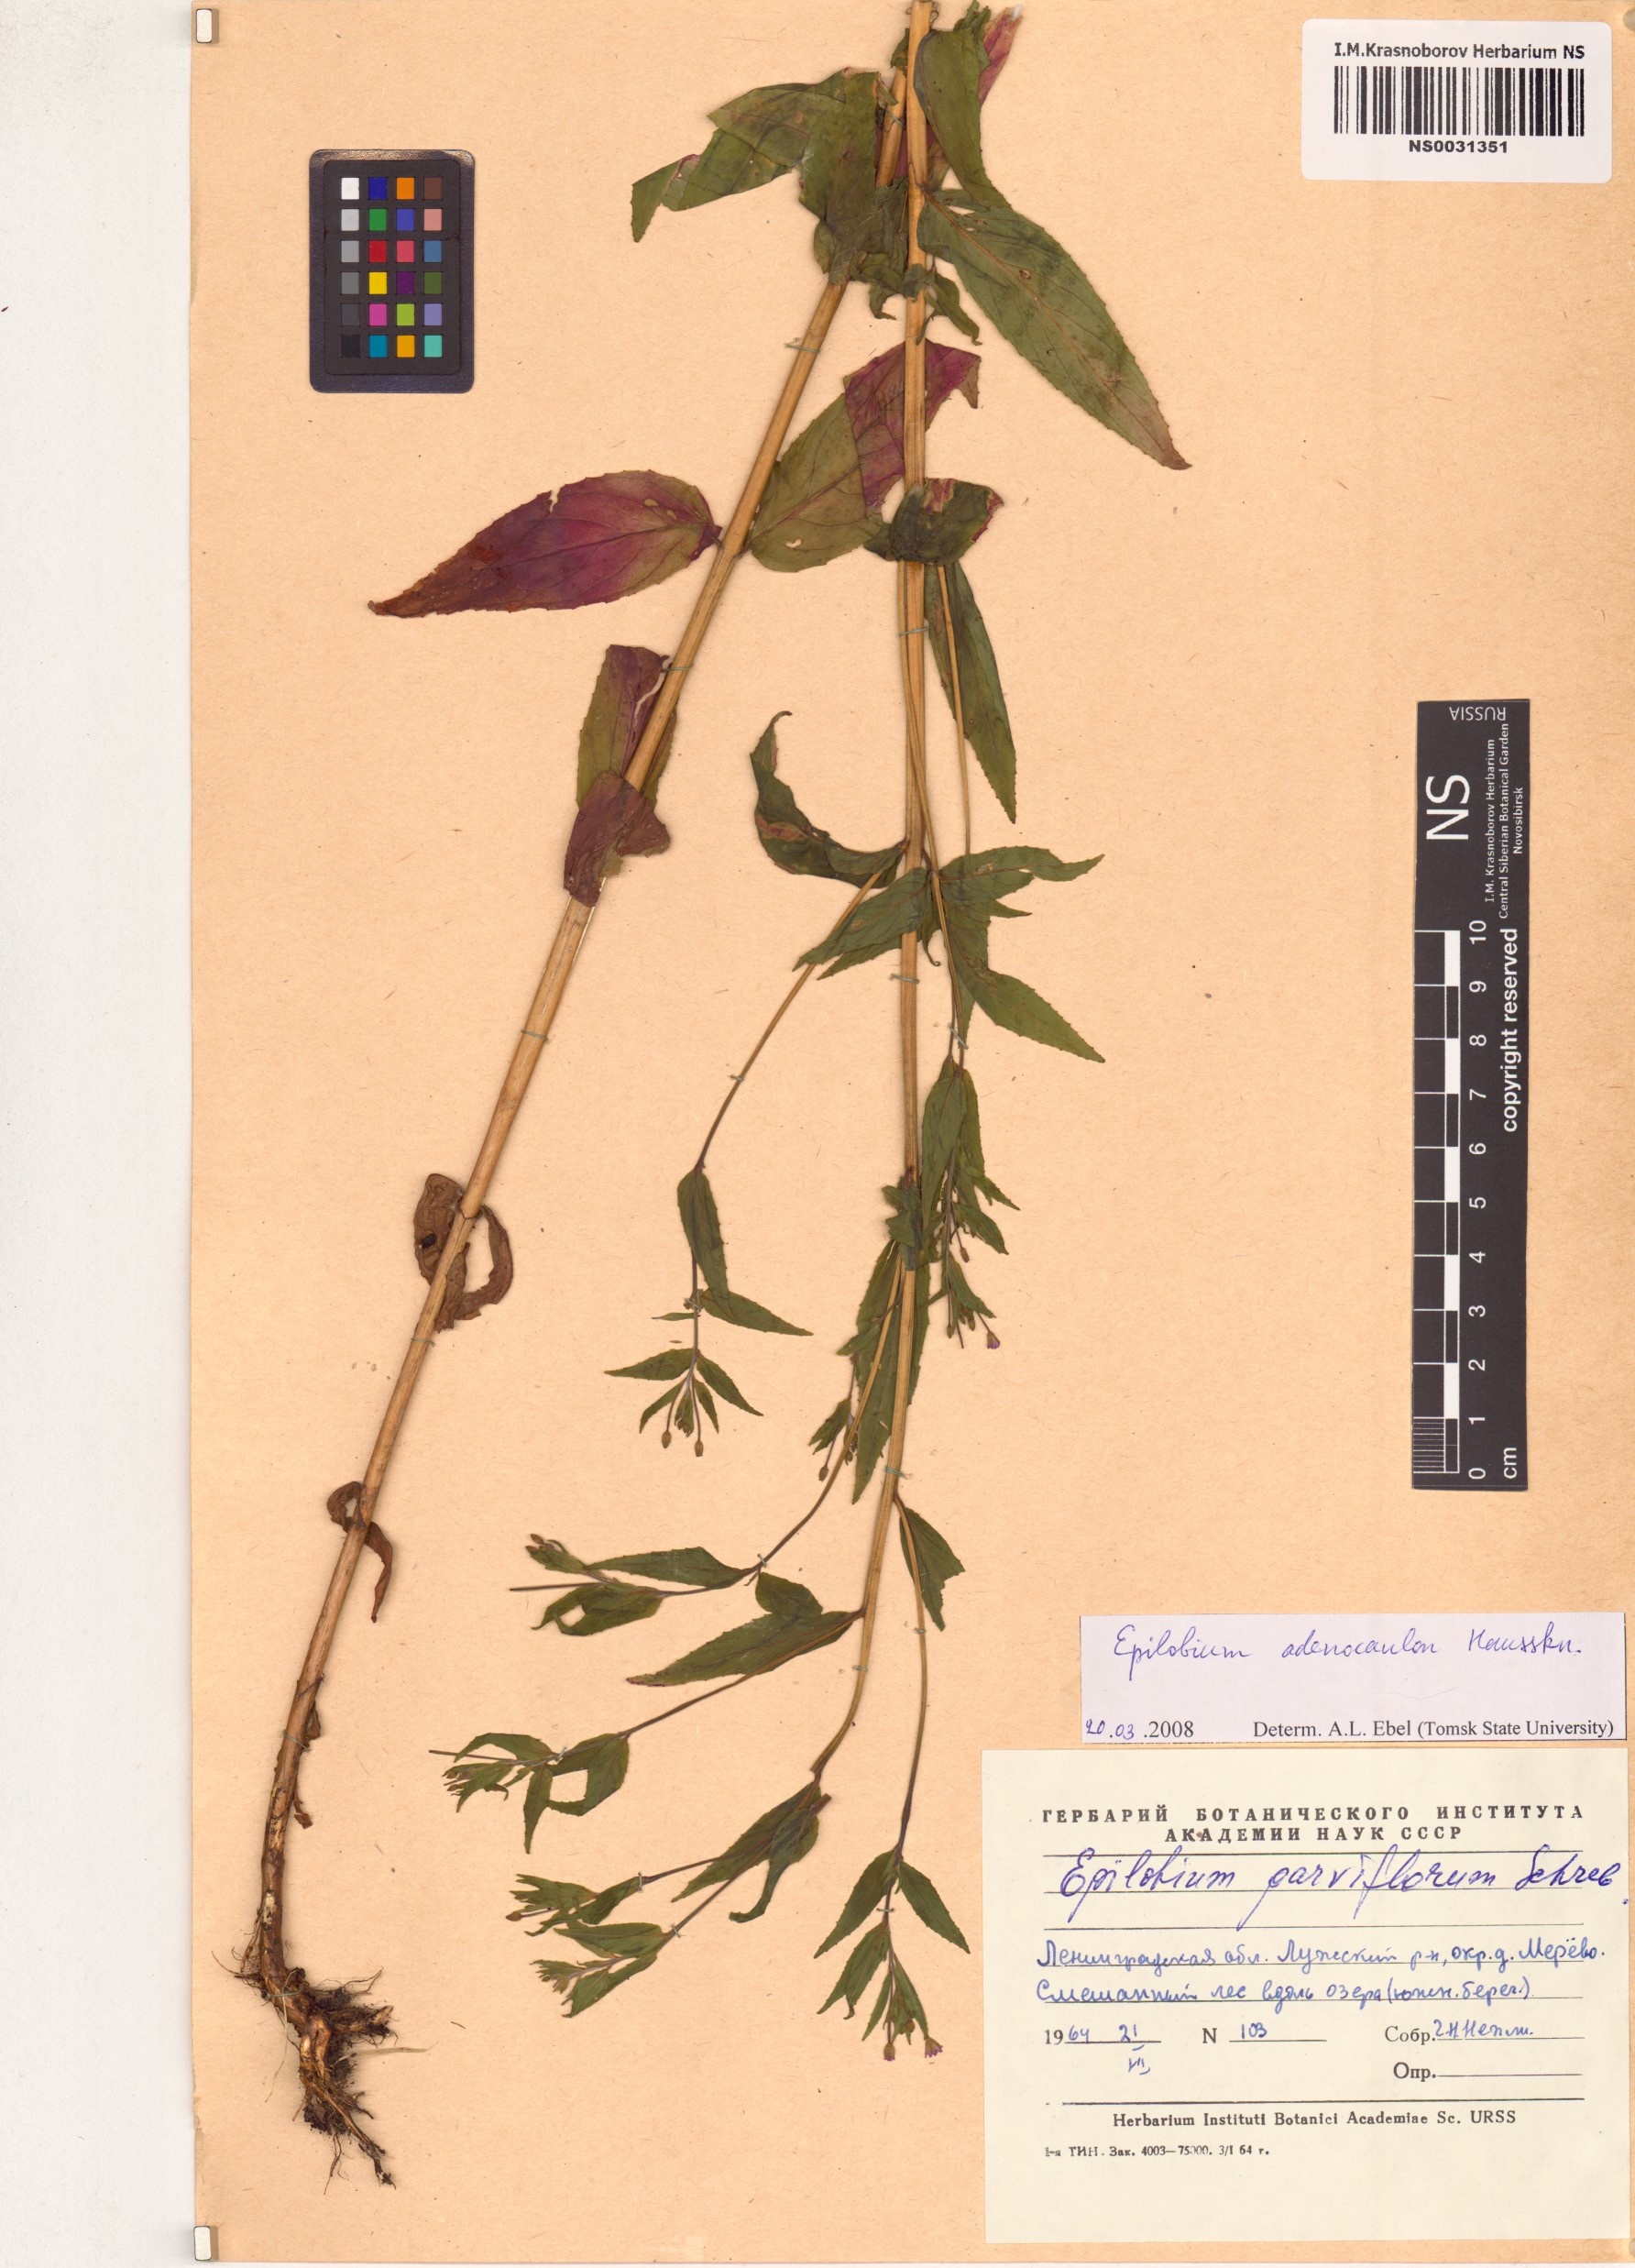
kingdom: Plantae
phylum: Tracheophyta
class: Magnoliopsida
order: Myrtales
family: Onagraceae
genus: Epilobium
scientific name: Epilobium ciliatum
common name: American willowherb
